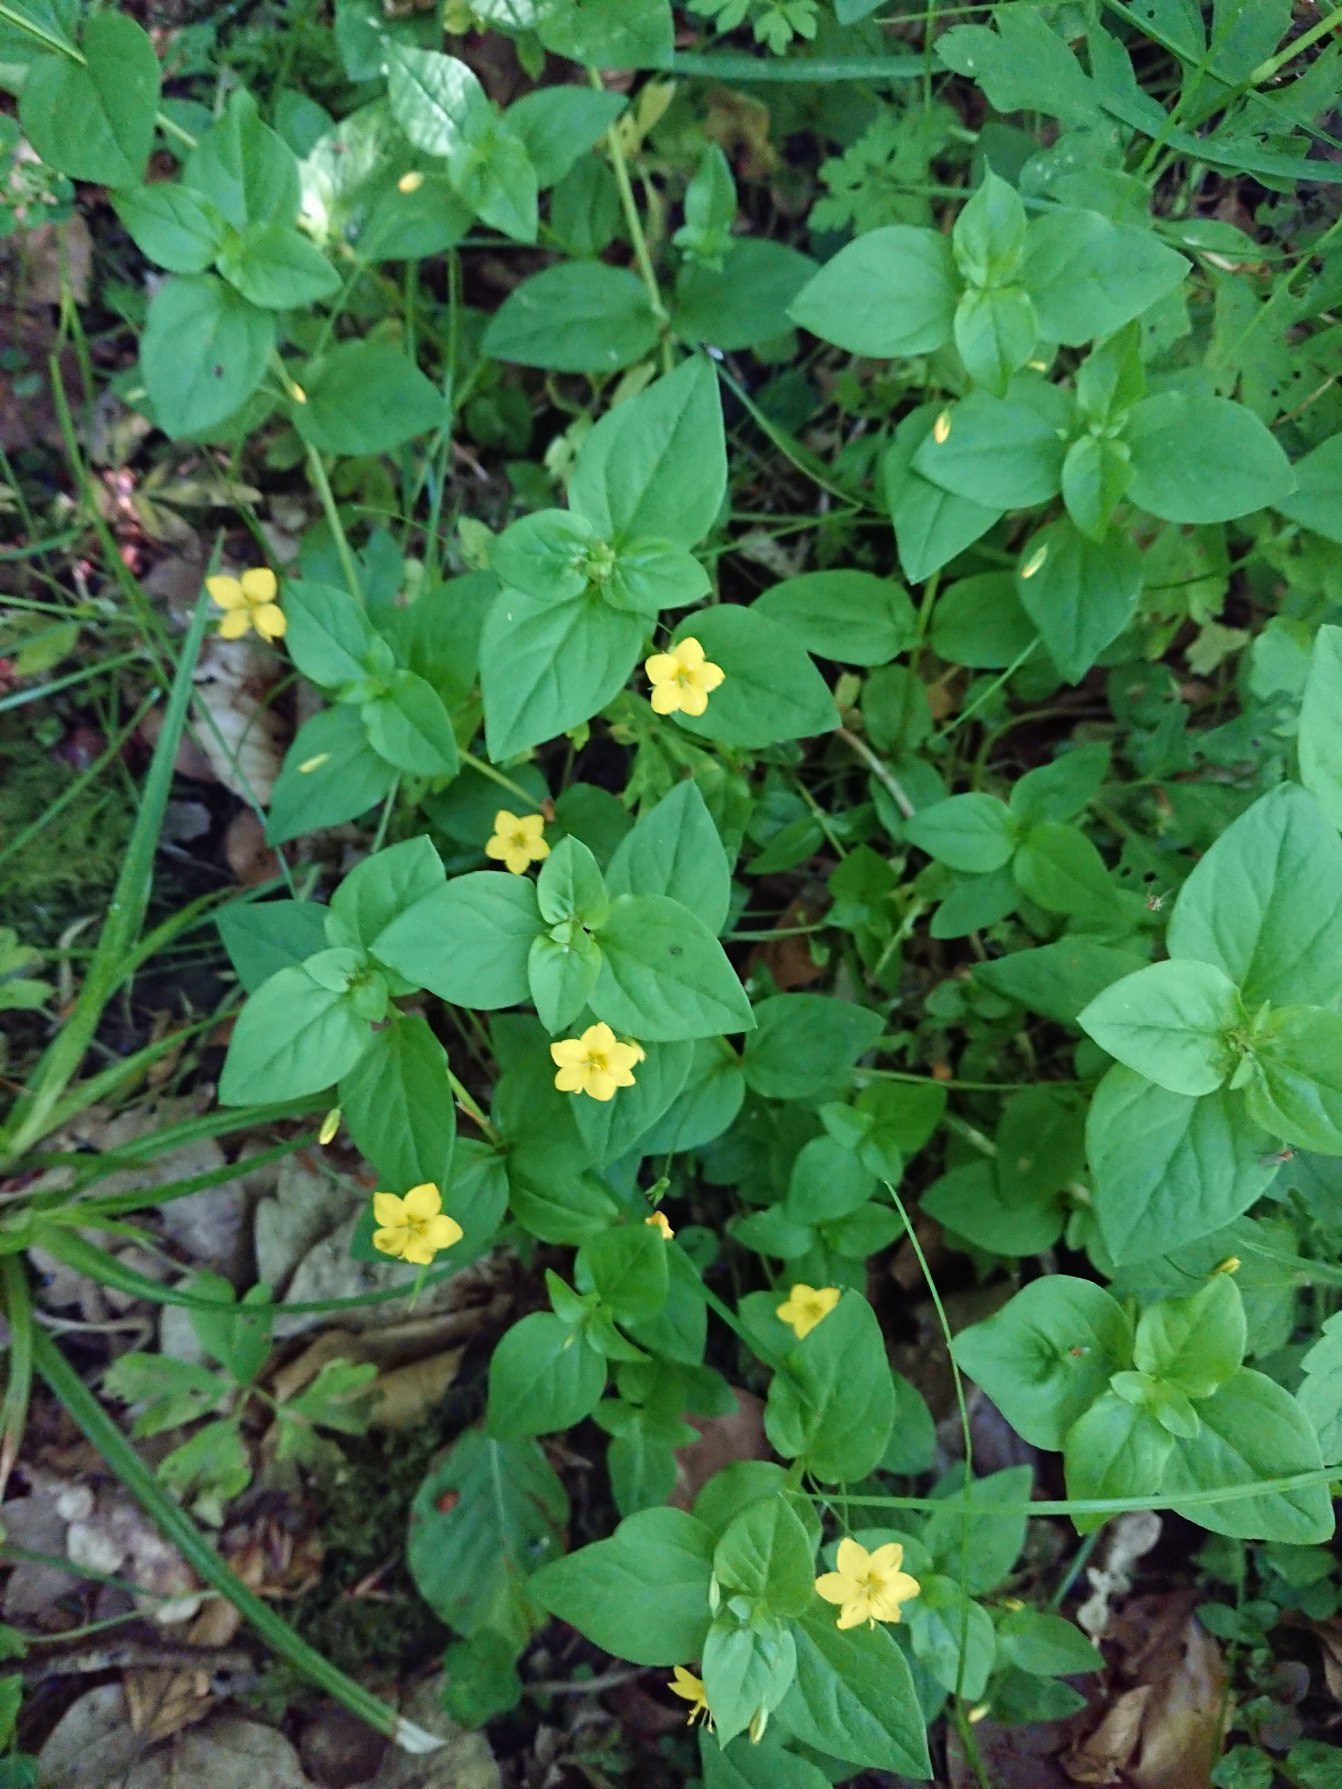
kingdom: Plantae
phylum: Tracheophyta
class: Magnoliopsida
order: Ericales
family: Primulaceae
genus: Lysimachia
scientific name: Lysimachia nemorum
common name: Lund-fredløs
